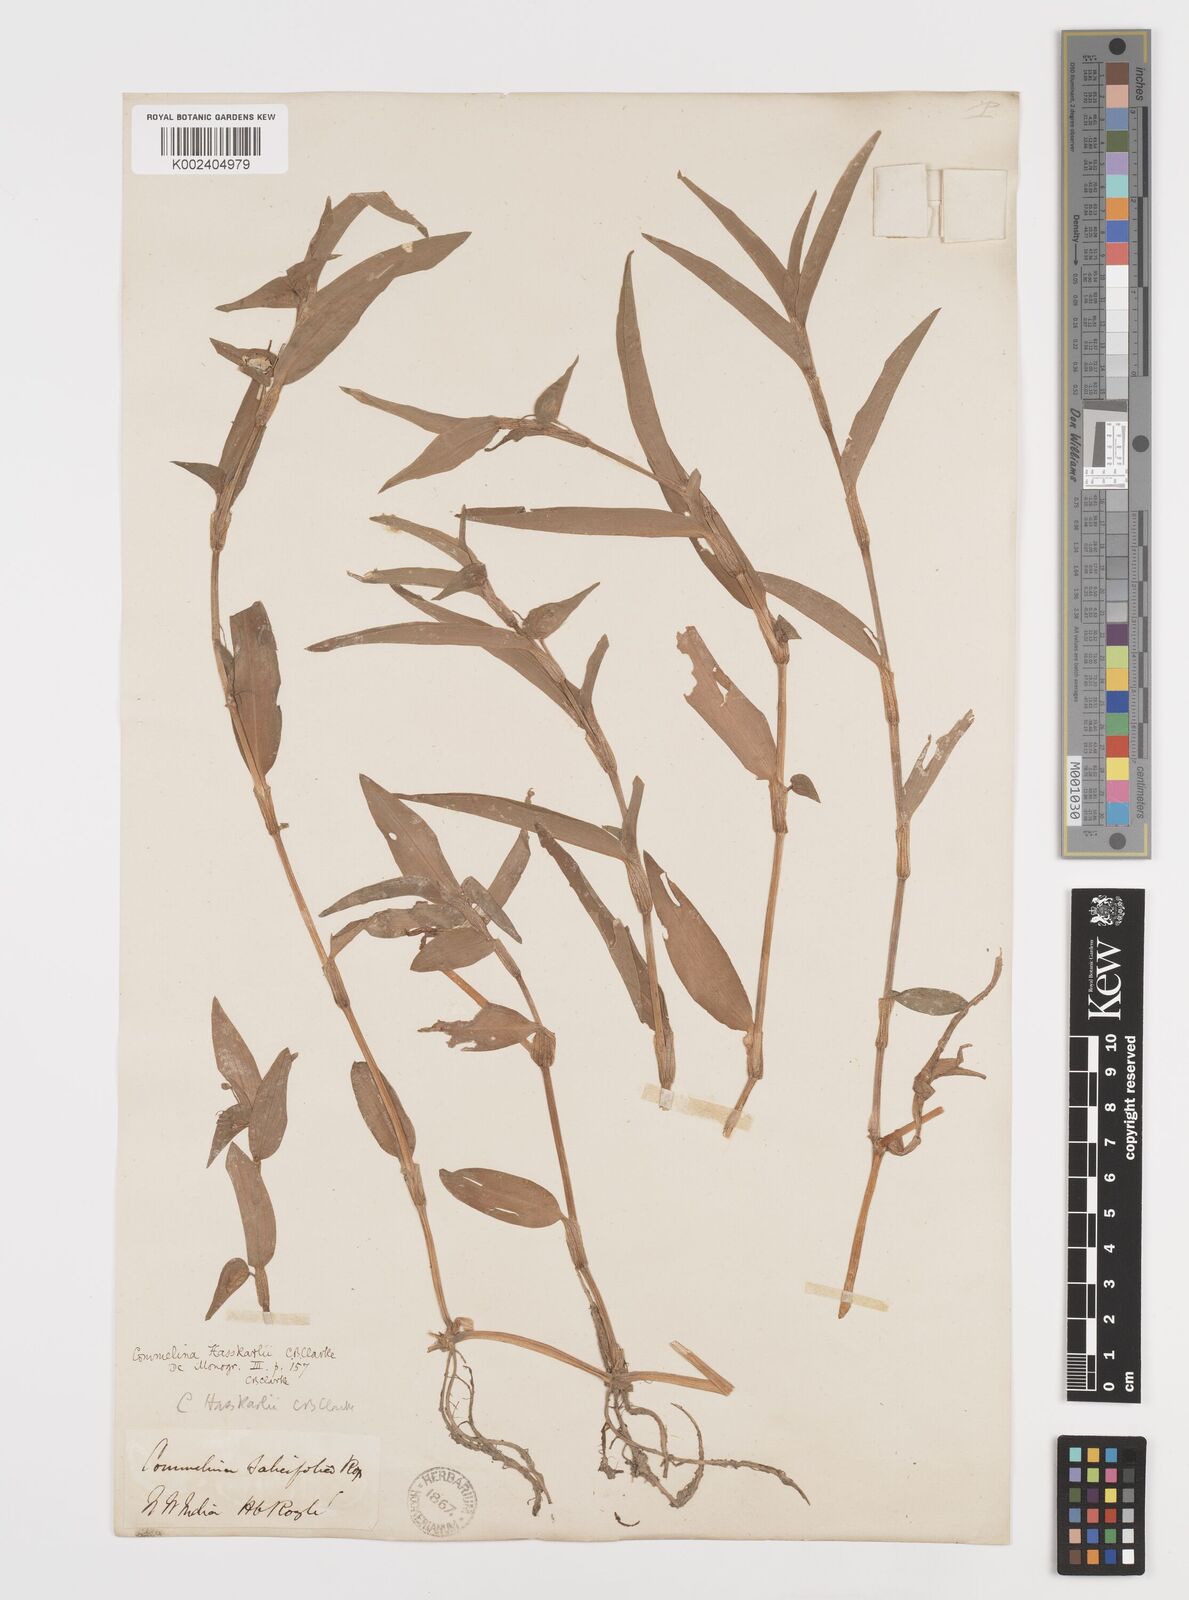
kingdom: Plantae
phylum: Tracheophyta
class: Liliopsida
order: Commelinales
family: Commelinaceae
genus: Commelina
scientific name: Commelina undulata
